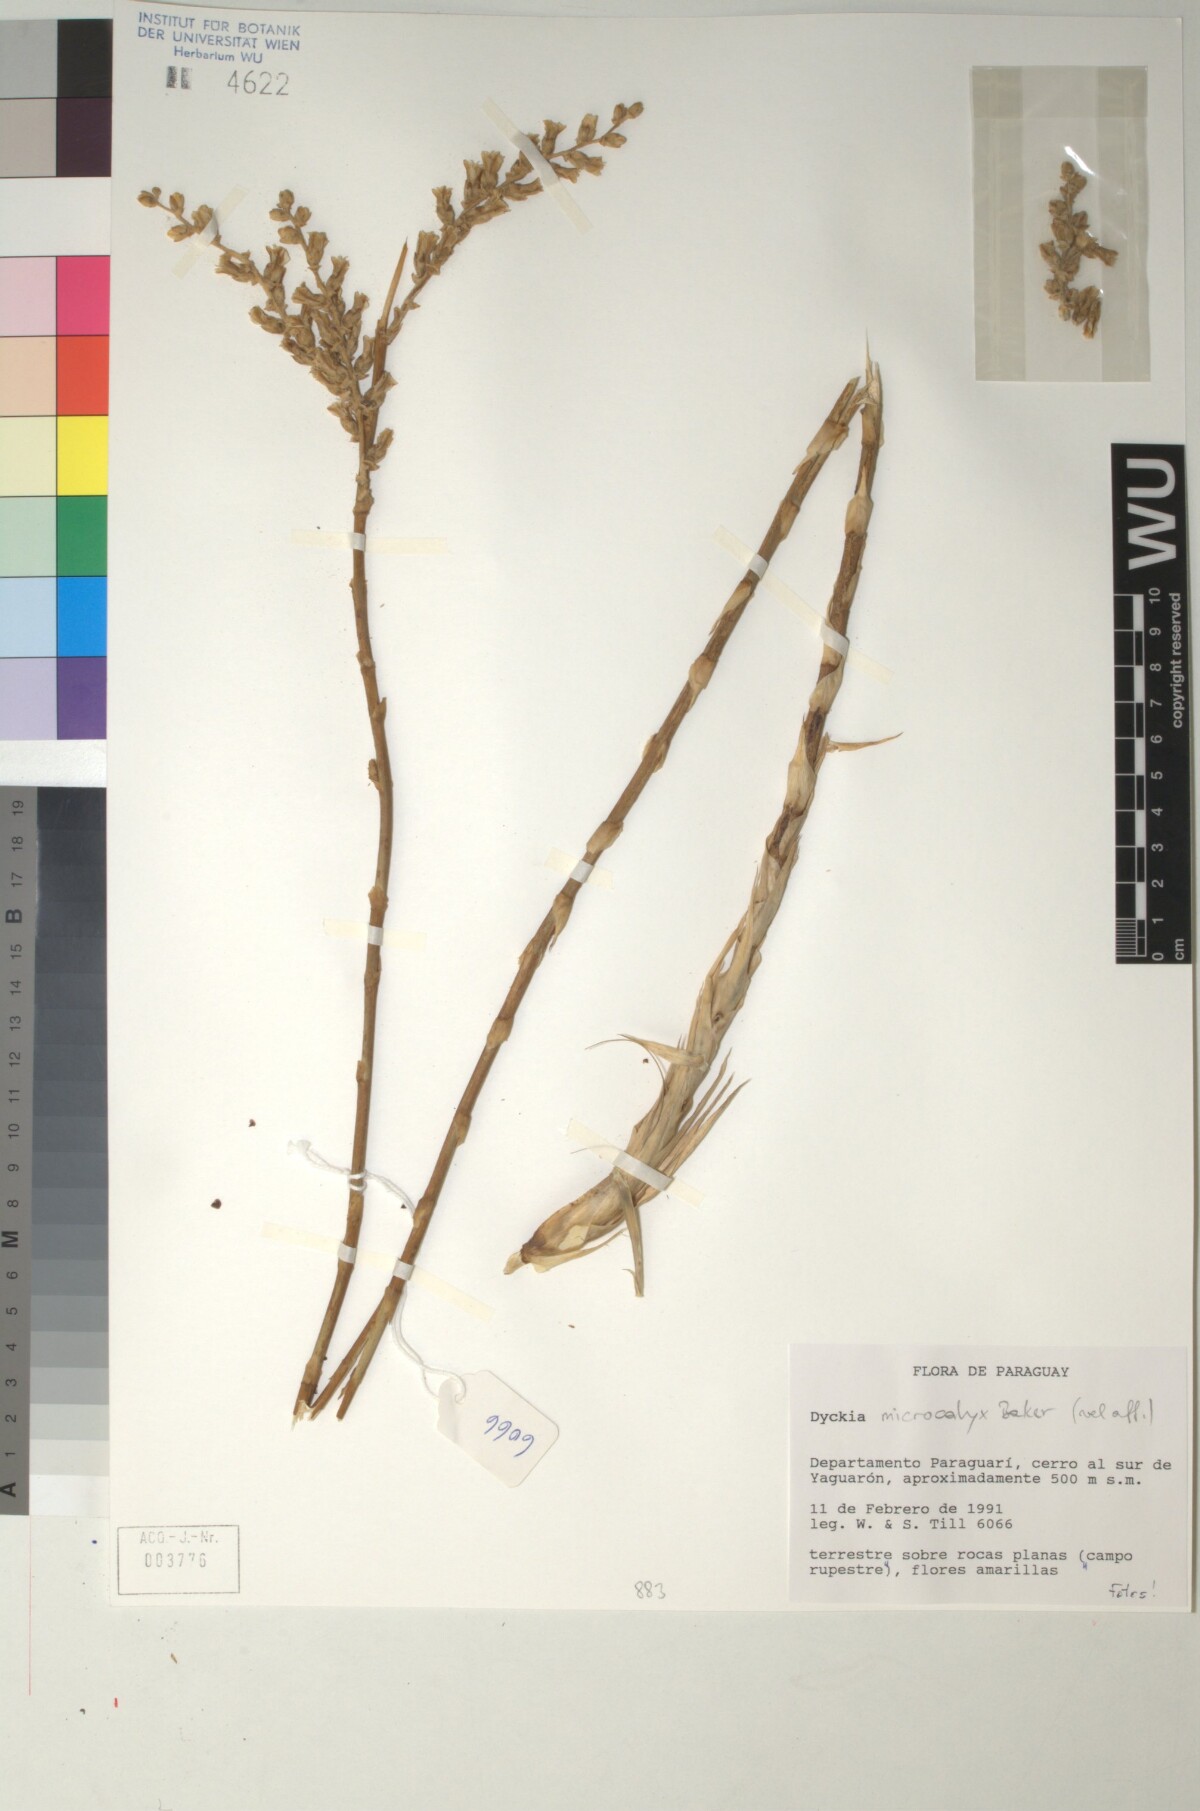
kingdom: Plantae
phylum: Tracheophyta
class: Liliopsida
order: Poales
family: Bromeliaceae
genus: Dyckia
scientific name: Dyckia microcalyx
